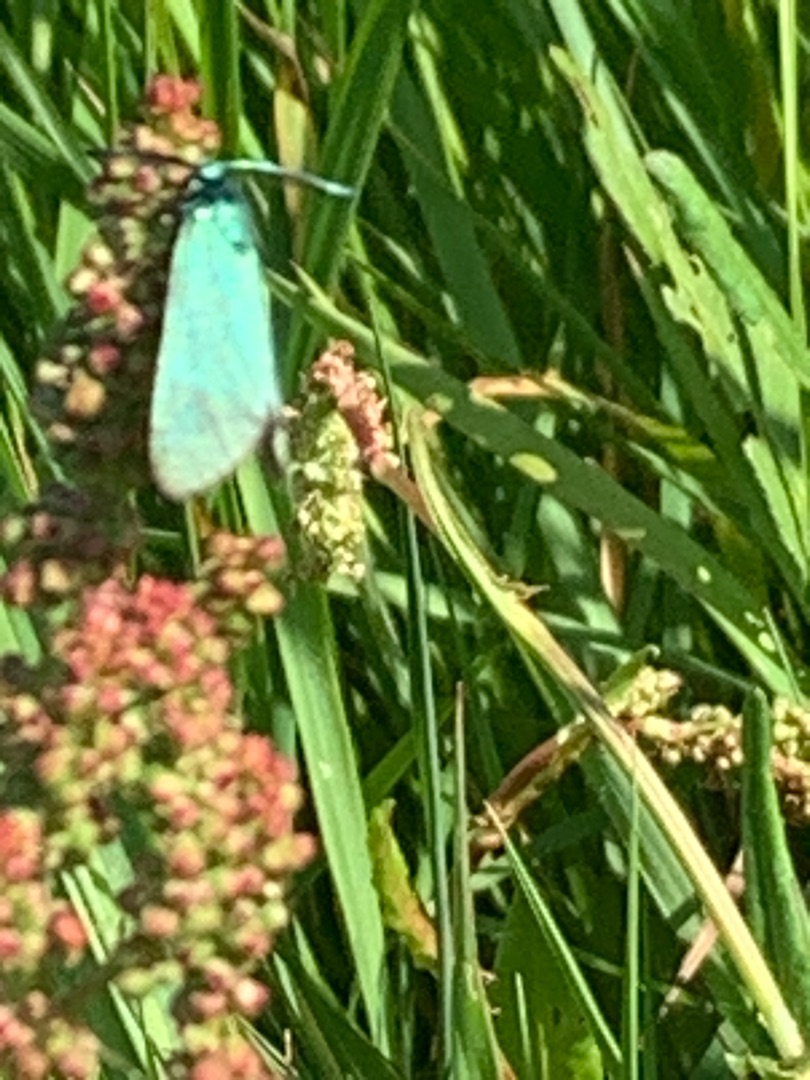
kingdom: Animalia
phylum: Arthropoda
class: Insecta
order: Lepidoptera
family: Zygaenidae
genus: Adscita
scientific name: Adscita statices
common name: Metalvinge
